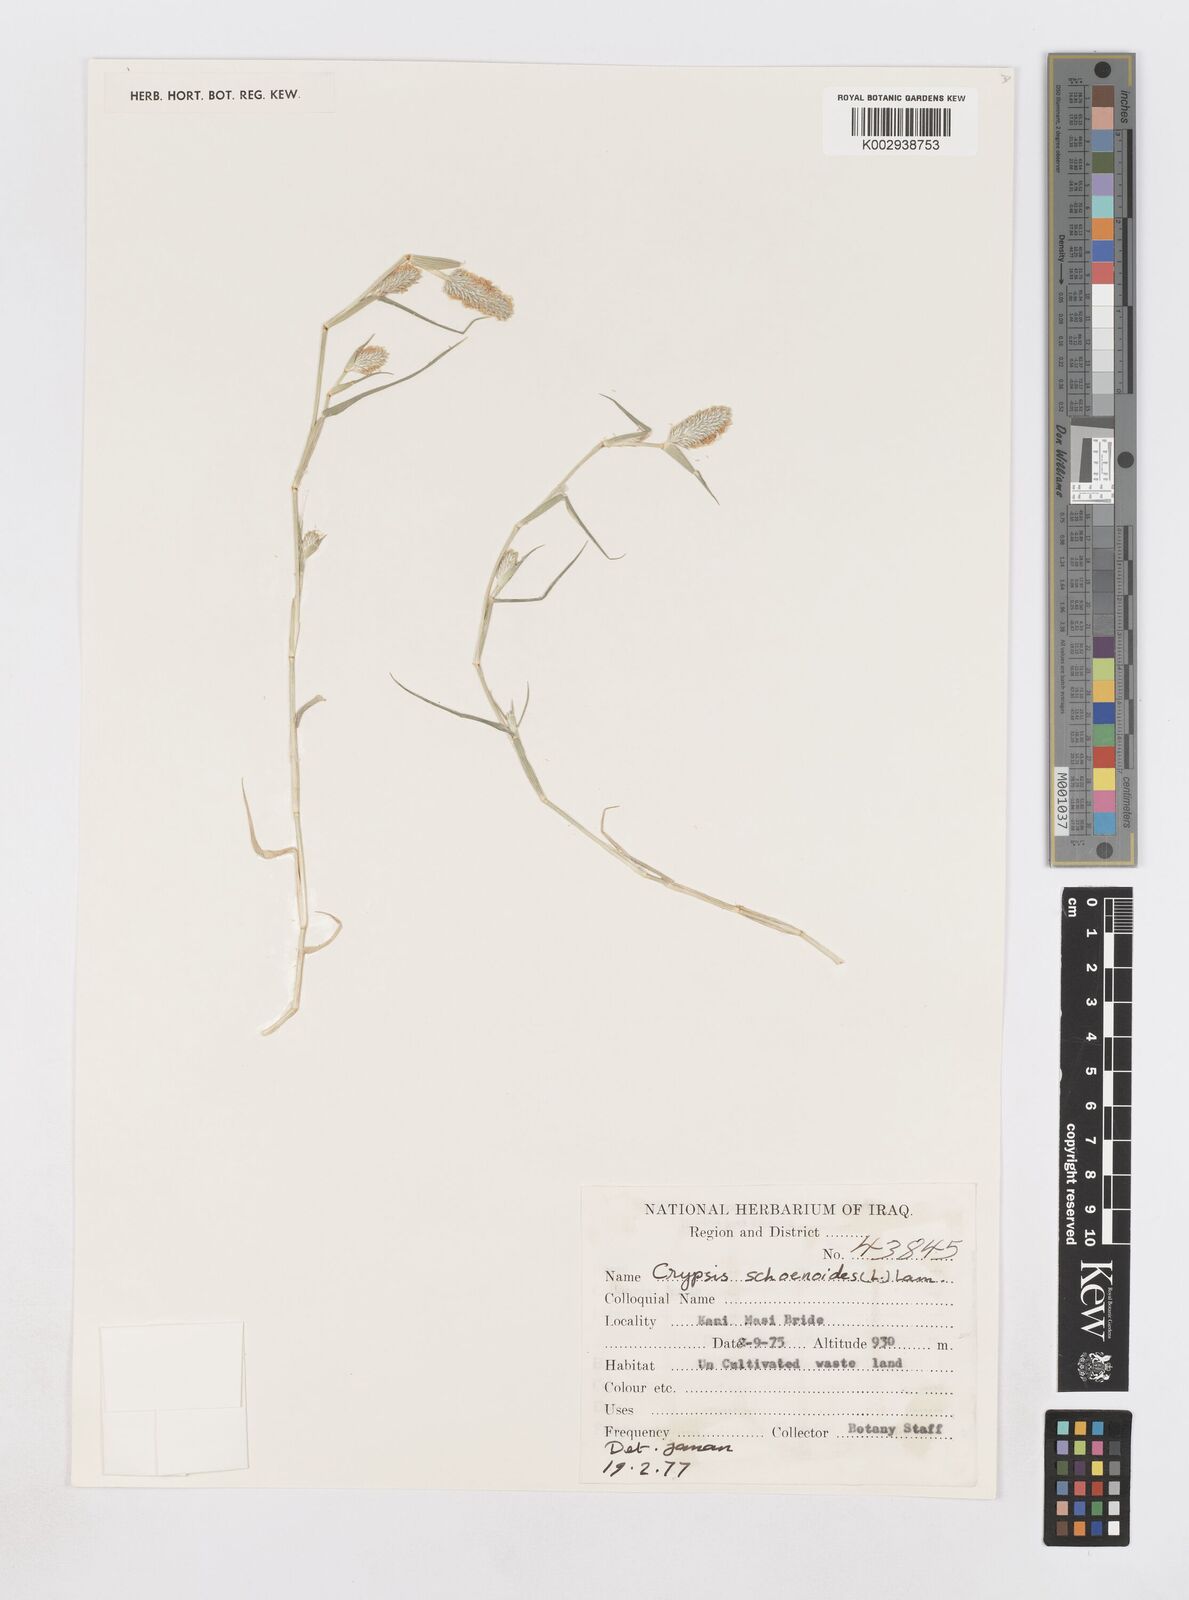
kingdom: Plantae
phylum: Tracheophyta
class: Liliopsida
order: Poales
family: Poaceae
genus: Sporobolus
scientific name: Sporobolus schoenoides
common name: Rush-like timothy
